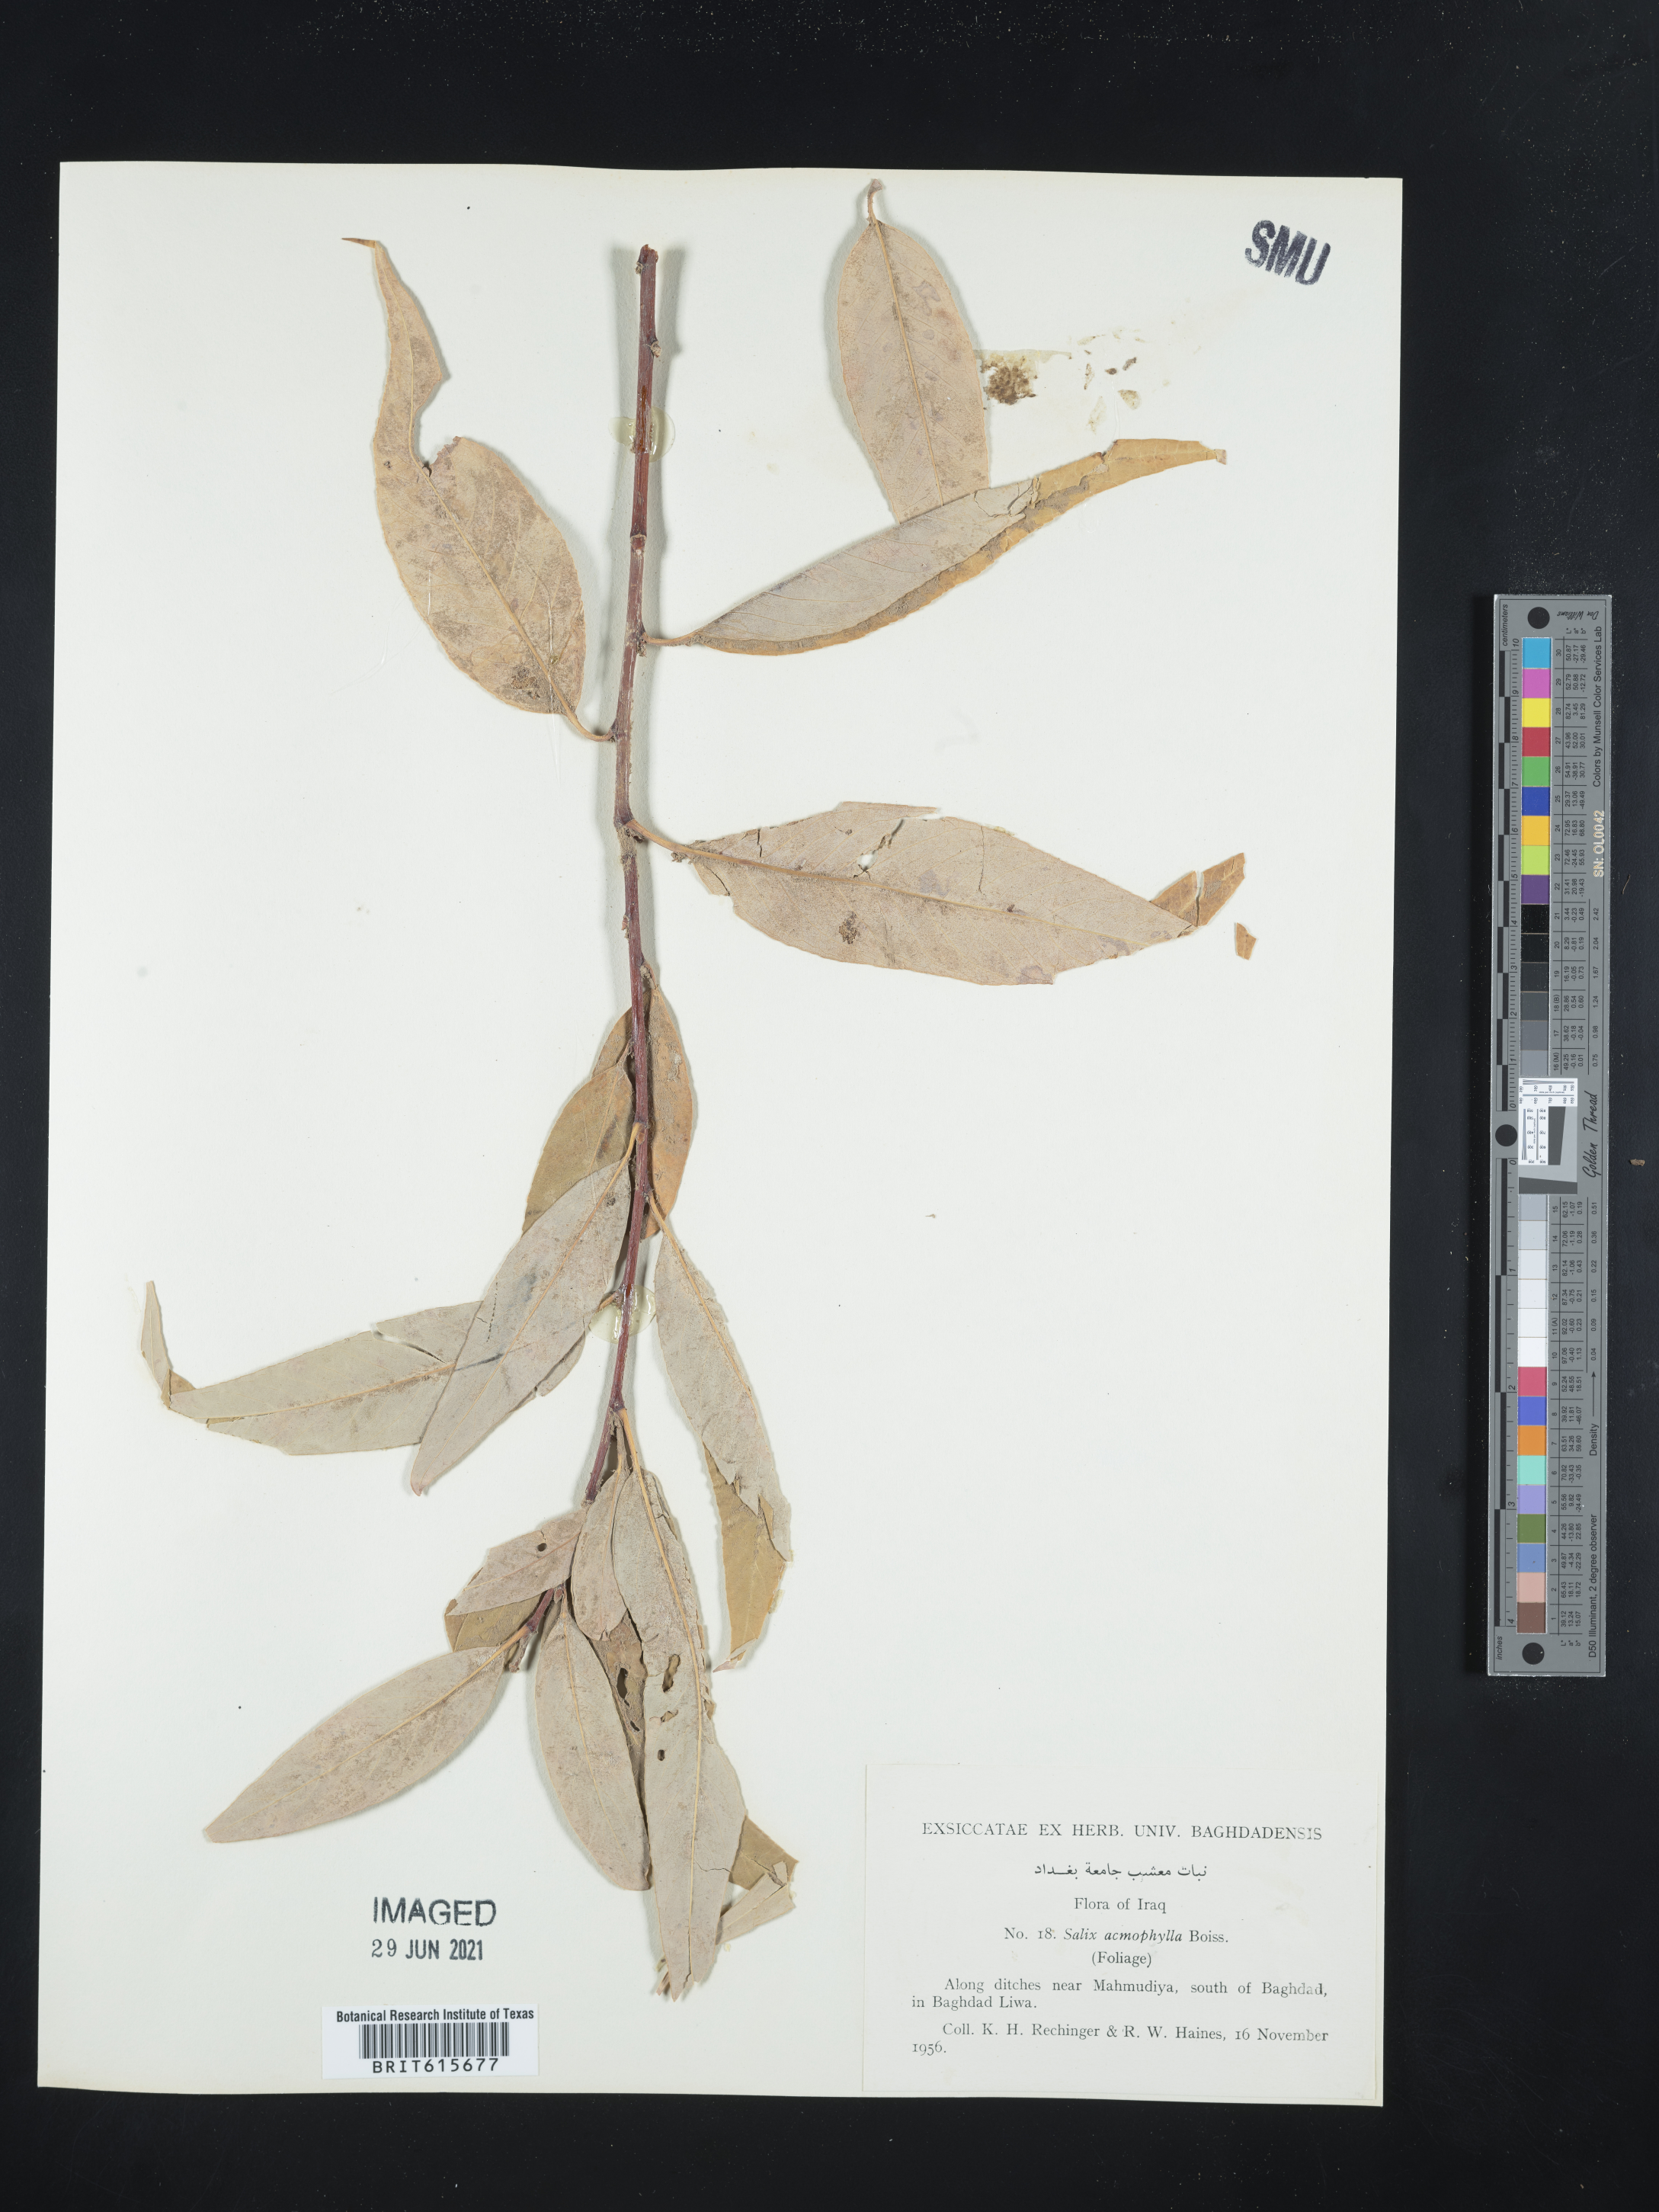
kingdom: Plantae
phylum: Tracheophyta
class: Magnoliopsida
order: Malpighiales
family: Salicaceae
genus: Salix
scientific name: Salix acmophylla
